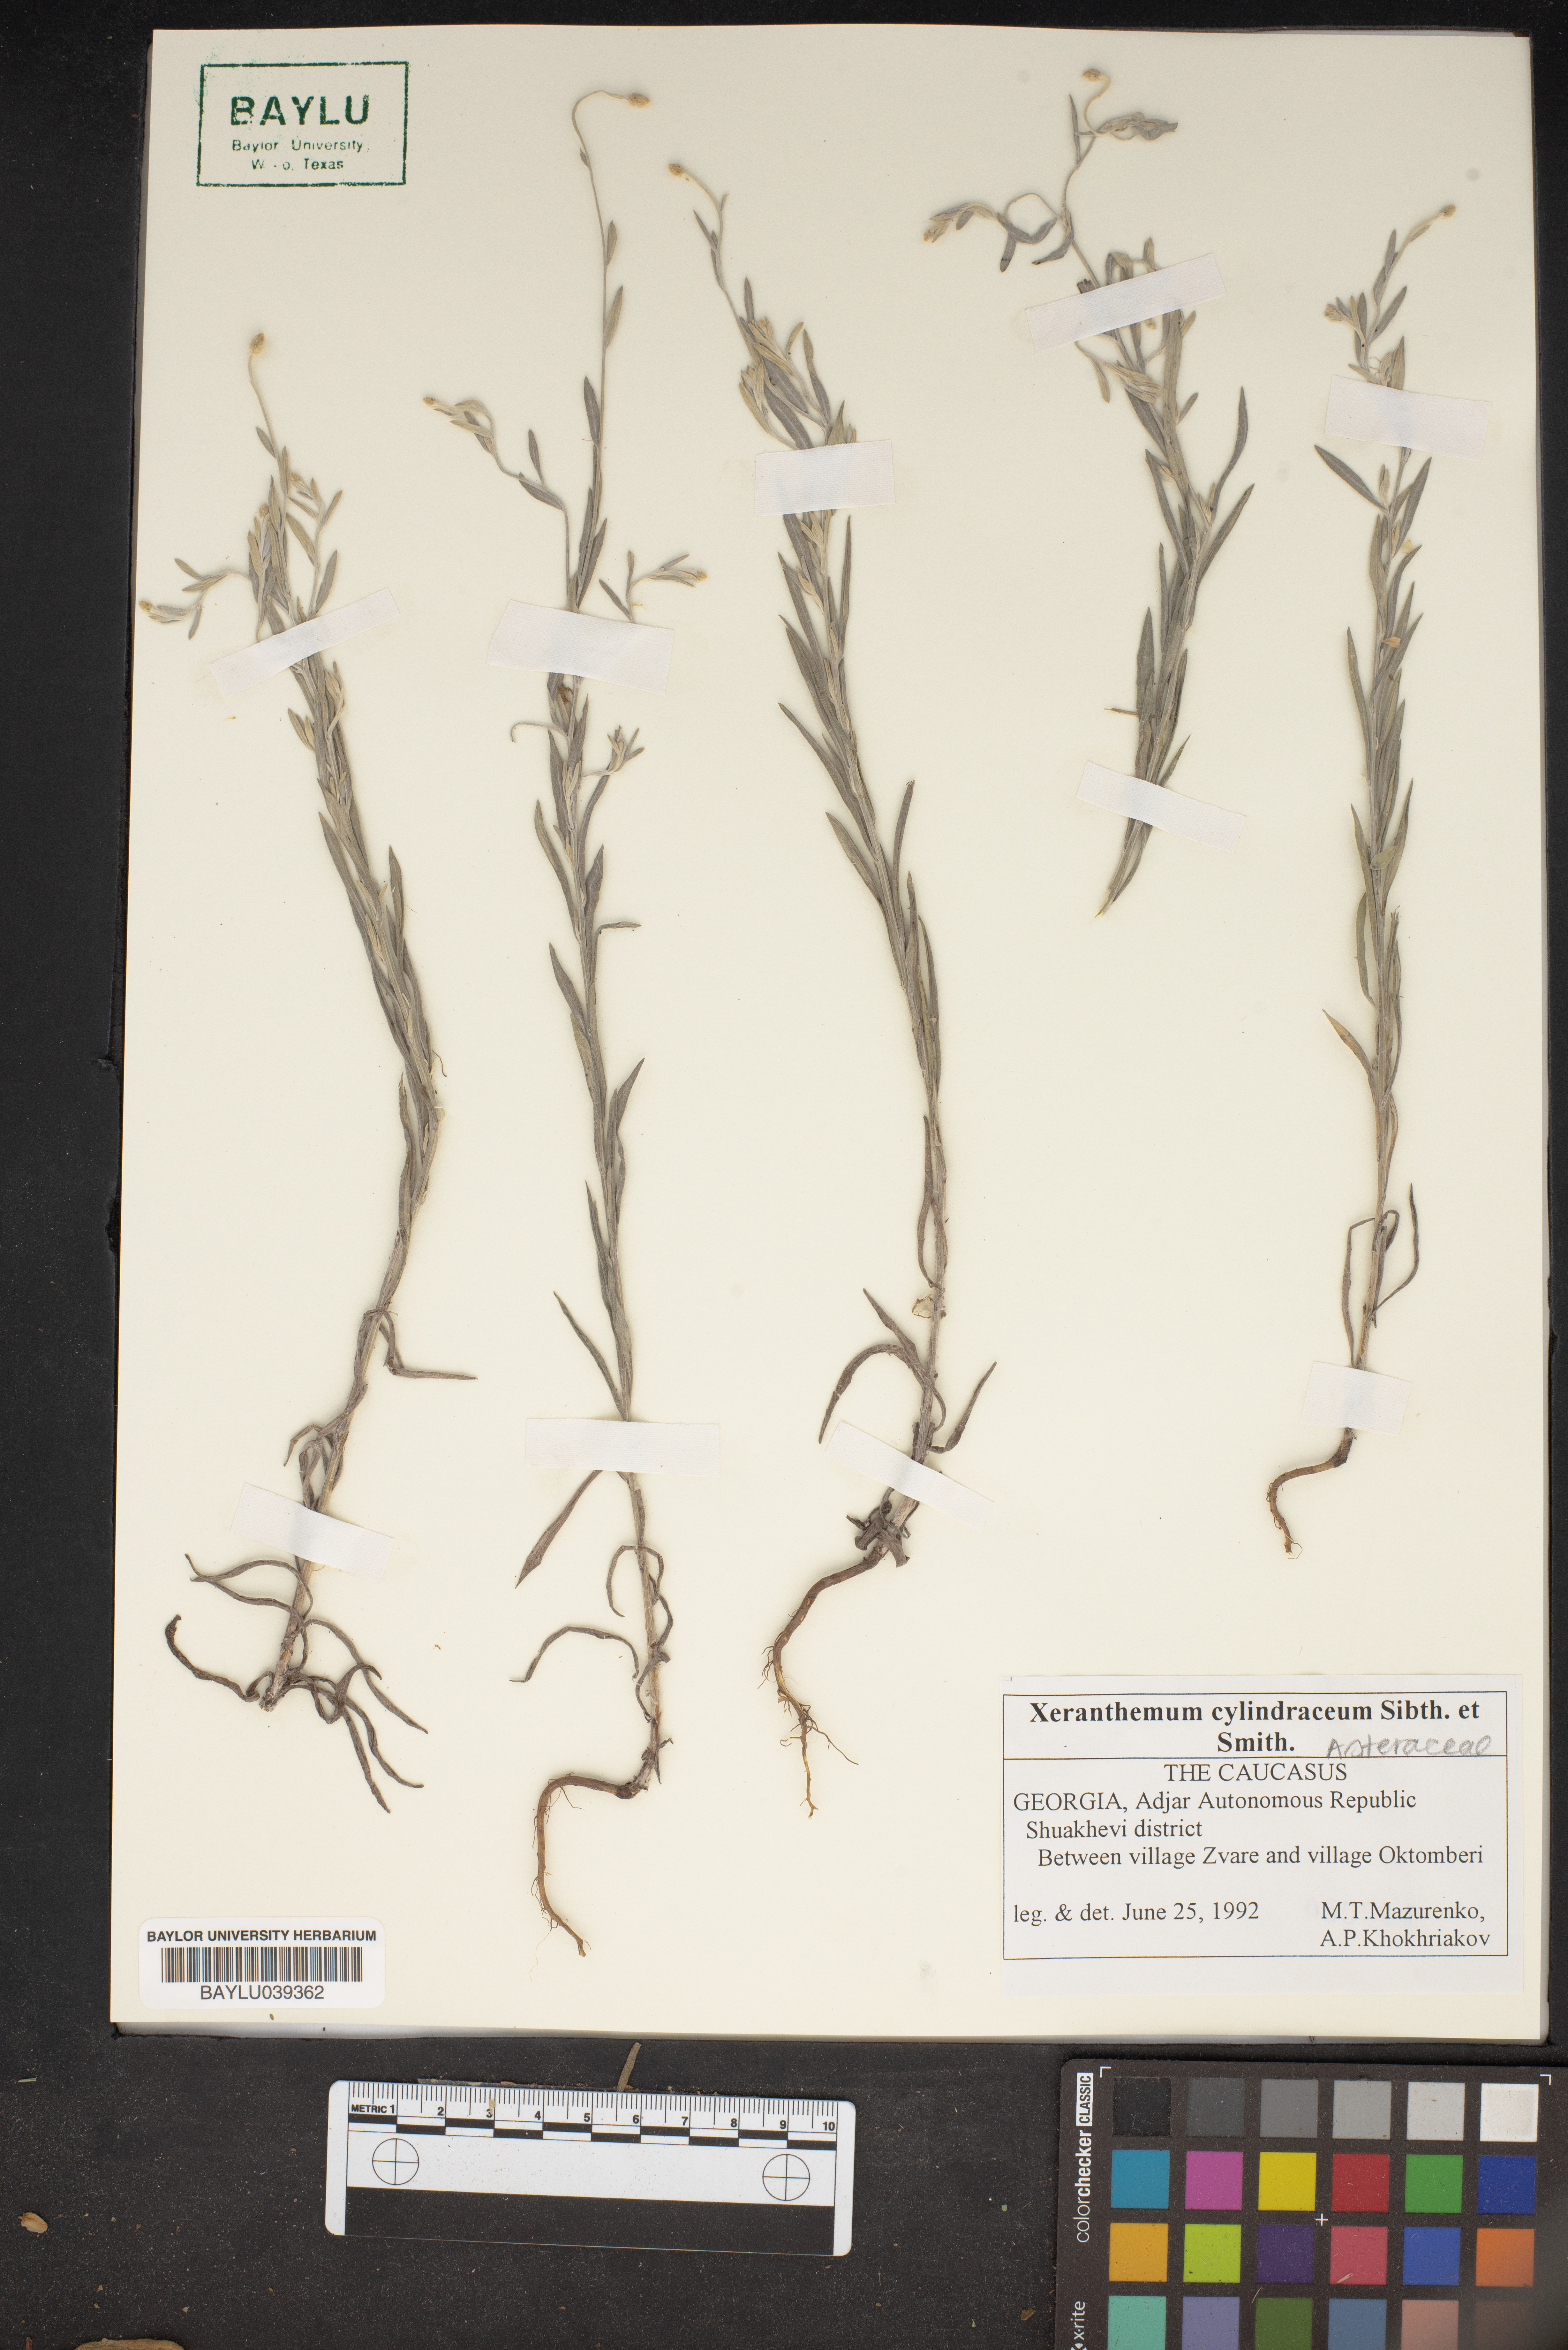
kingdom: Plantae
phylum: Tracheophyta
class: Magnoliopsida
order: Asterales
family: Asteraceae
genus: Xeranthemum
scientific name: Xeranthemum cylindraceum
